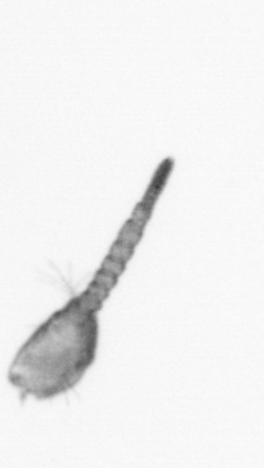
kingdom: Animalia
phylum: Arthropoda
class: Copepoda
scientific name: Copepoda
